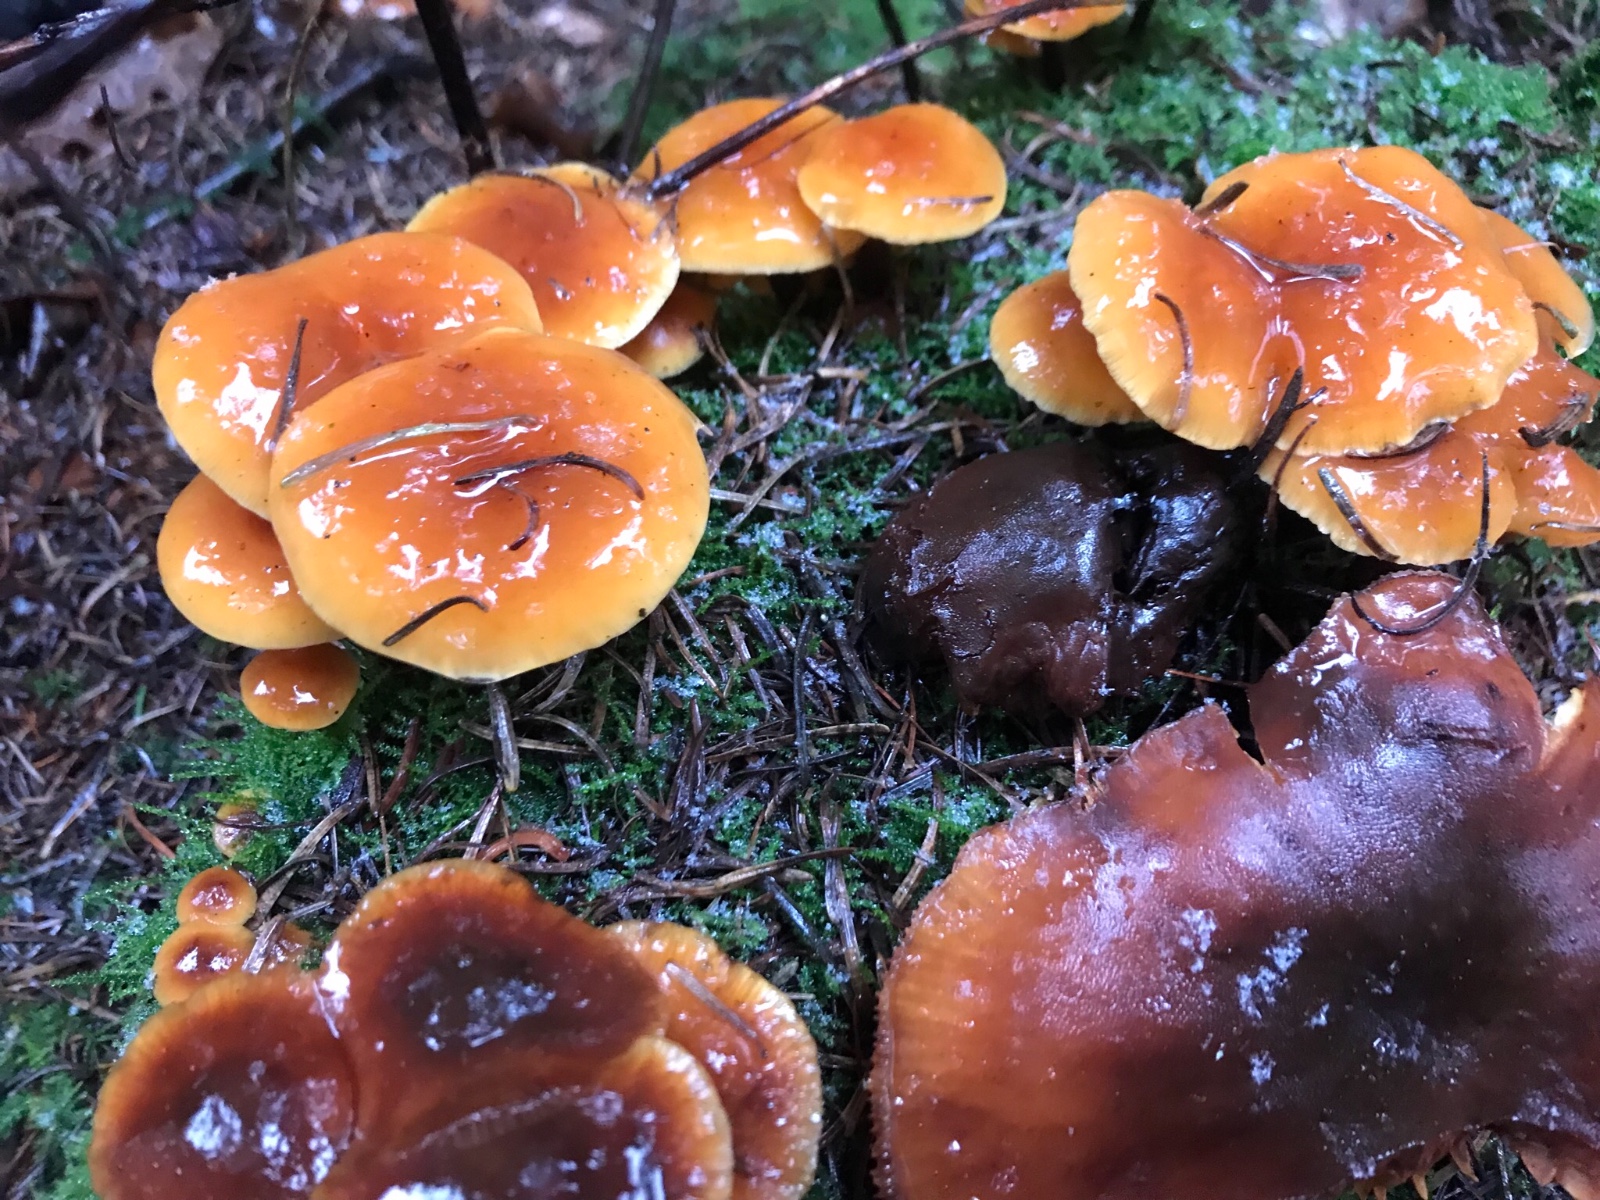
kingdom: Fungi
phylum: Basidiomycota
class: Agaricomycetes
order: Agaricales
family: Physalacriaceae
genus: Flammulina
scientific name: Flammulina velutipes
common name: gul fløjlsfod
